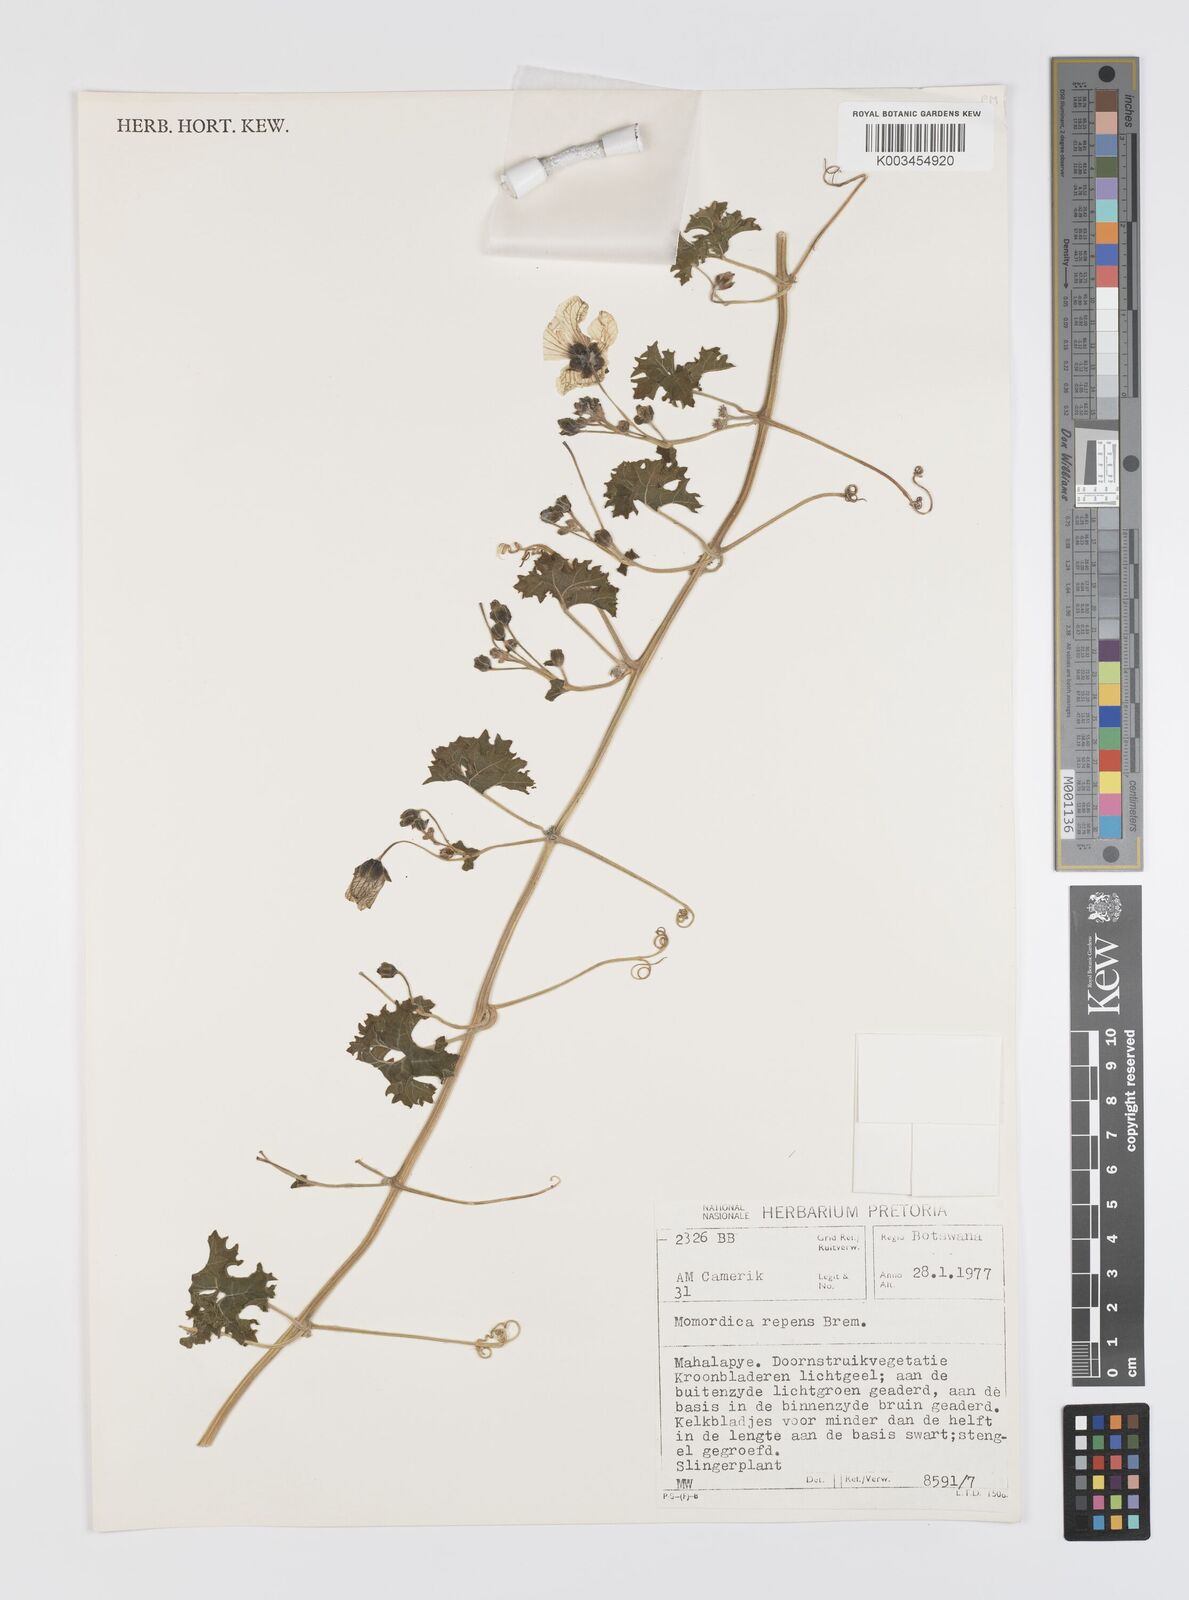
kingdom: Plantae
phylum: Tracheophyta
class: Magnoliopsida
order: Cucurbitales
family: Cucurbitaceae
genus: Momordica
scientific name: Momordica repens
